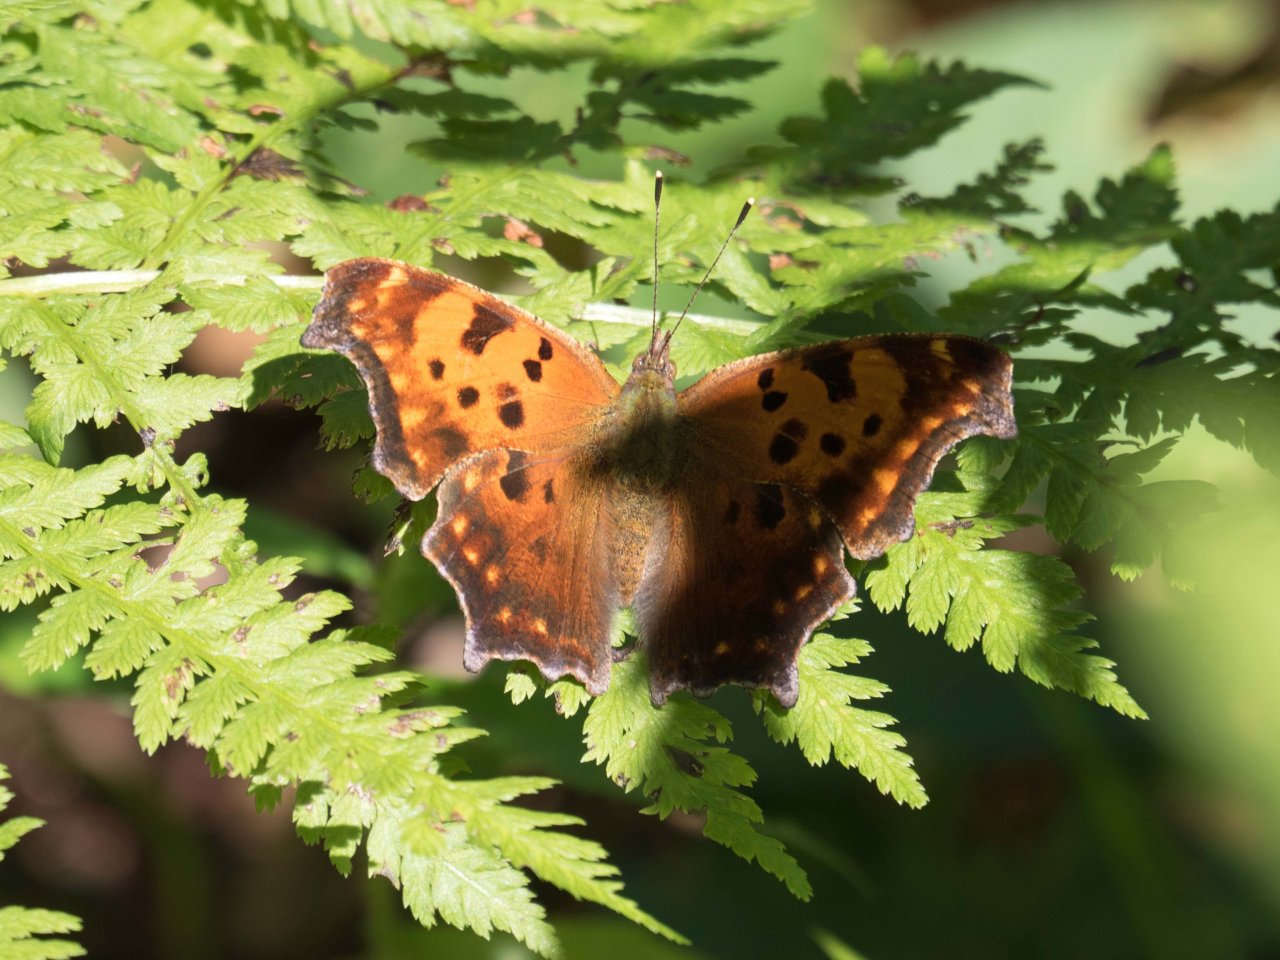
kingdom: Animalia
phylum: Arthropoda
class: Insecta
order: Lepidoptera
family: Nymphalidae
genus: Polygonia
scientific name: Polygonia comma
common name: Eastern Comma
